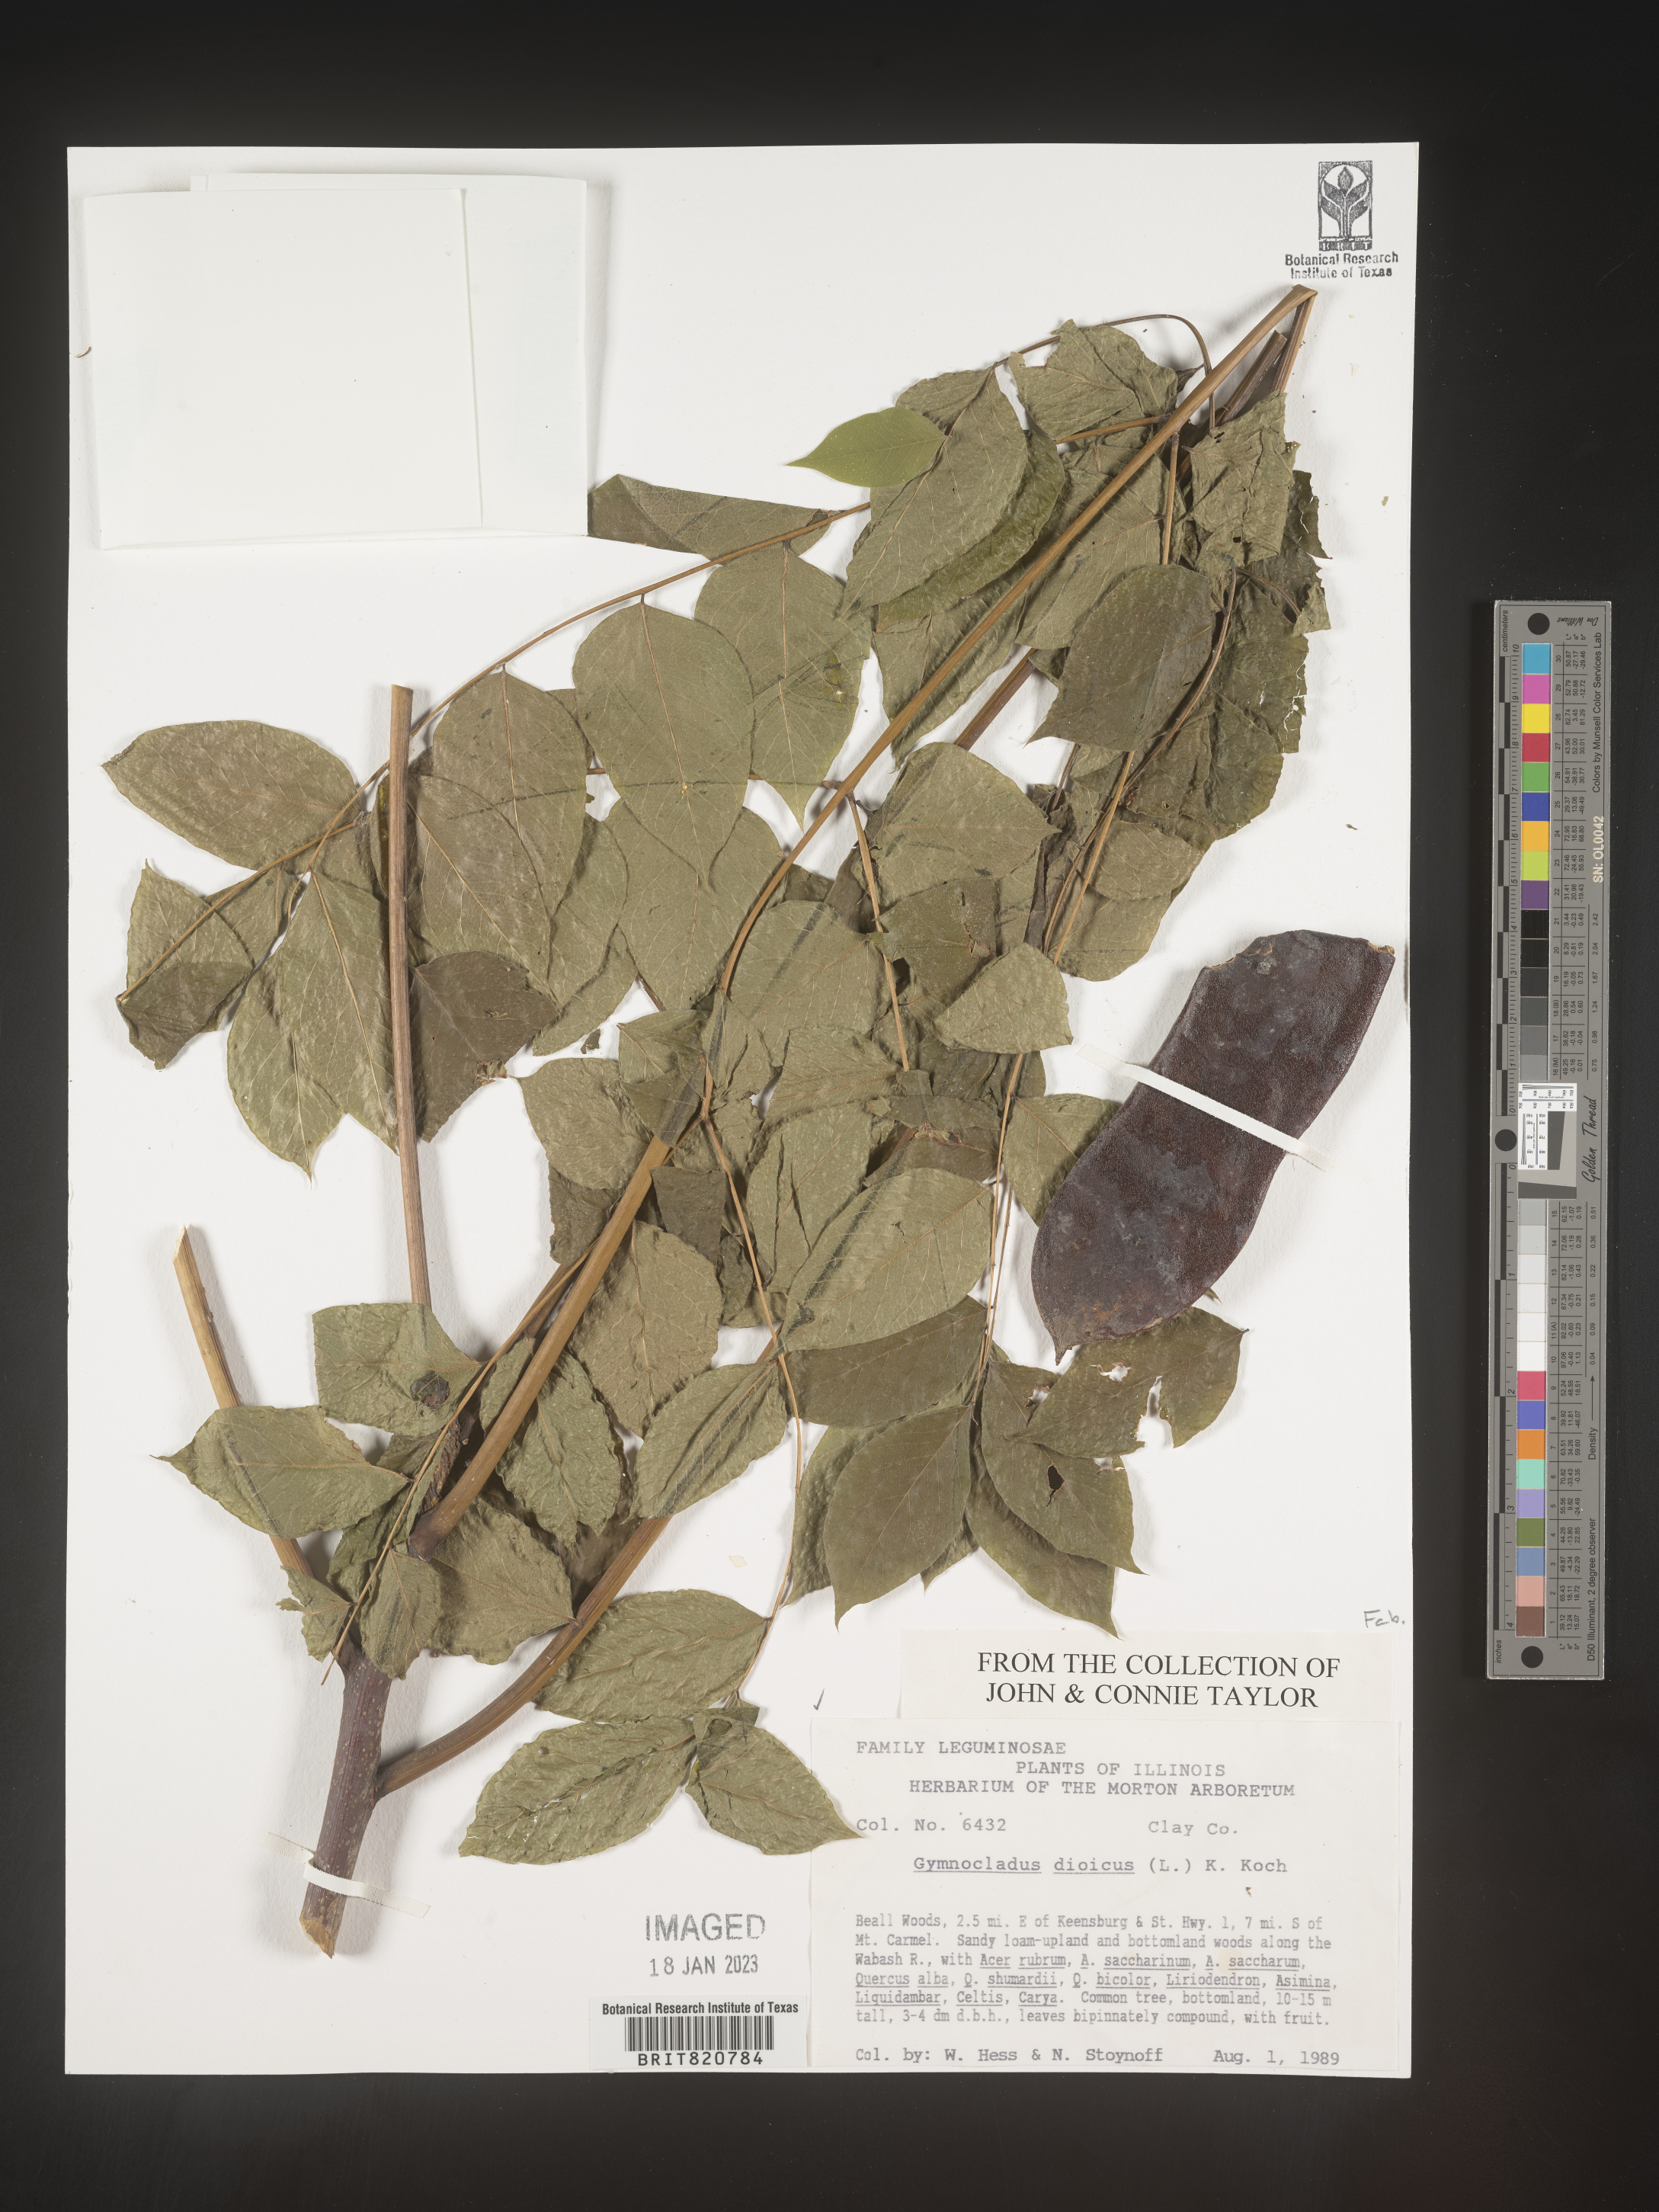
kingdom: Plantae
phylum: Tracheophyta
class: Magnoliopsida
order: Fabales
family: Fabaceae
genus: Gymnocladus
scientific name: Gymnocladus dioicus
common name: Kentucky coffee-tree
